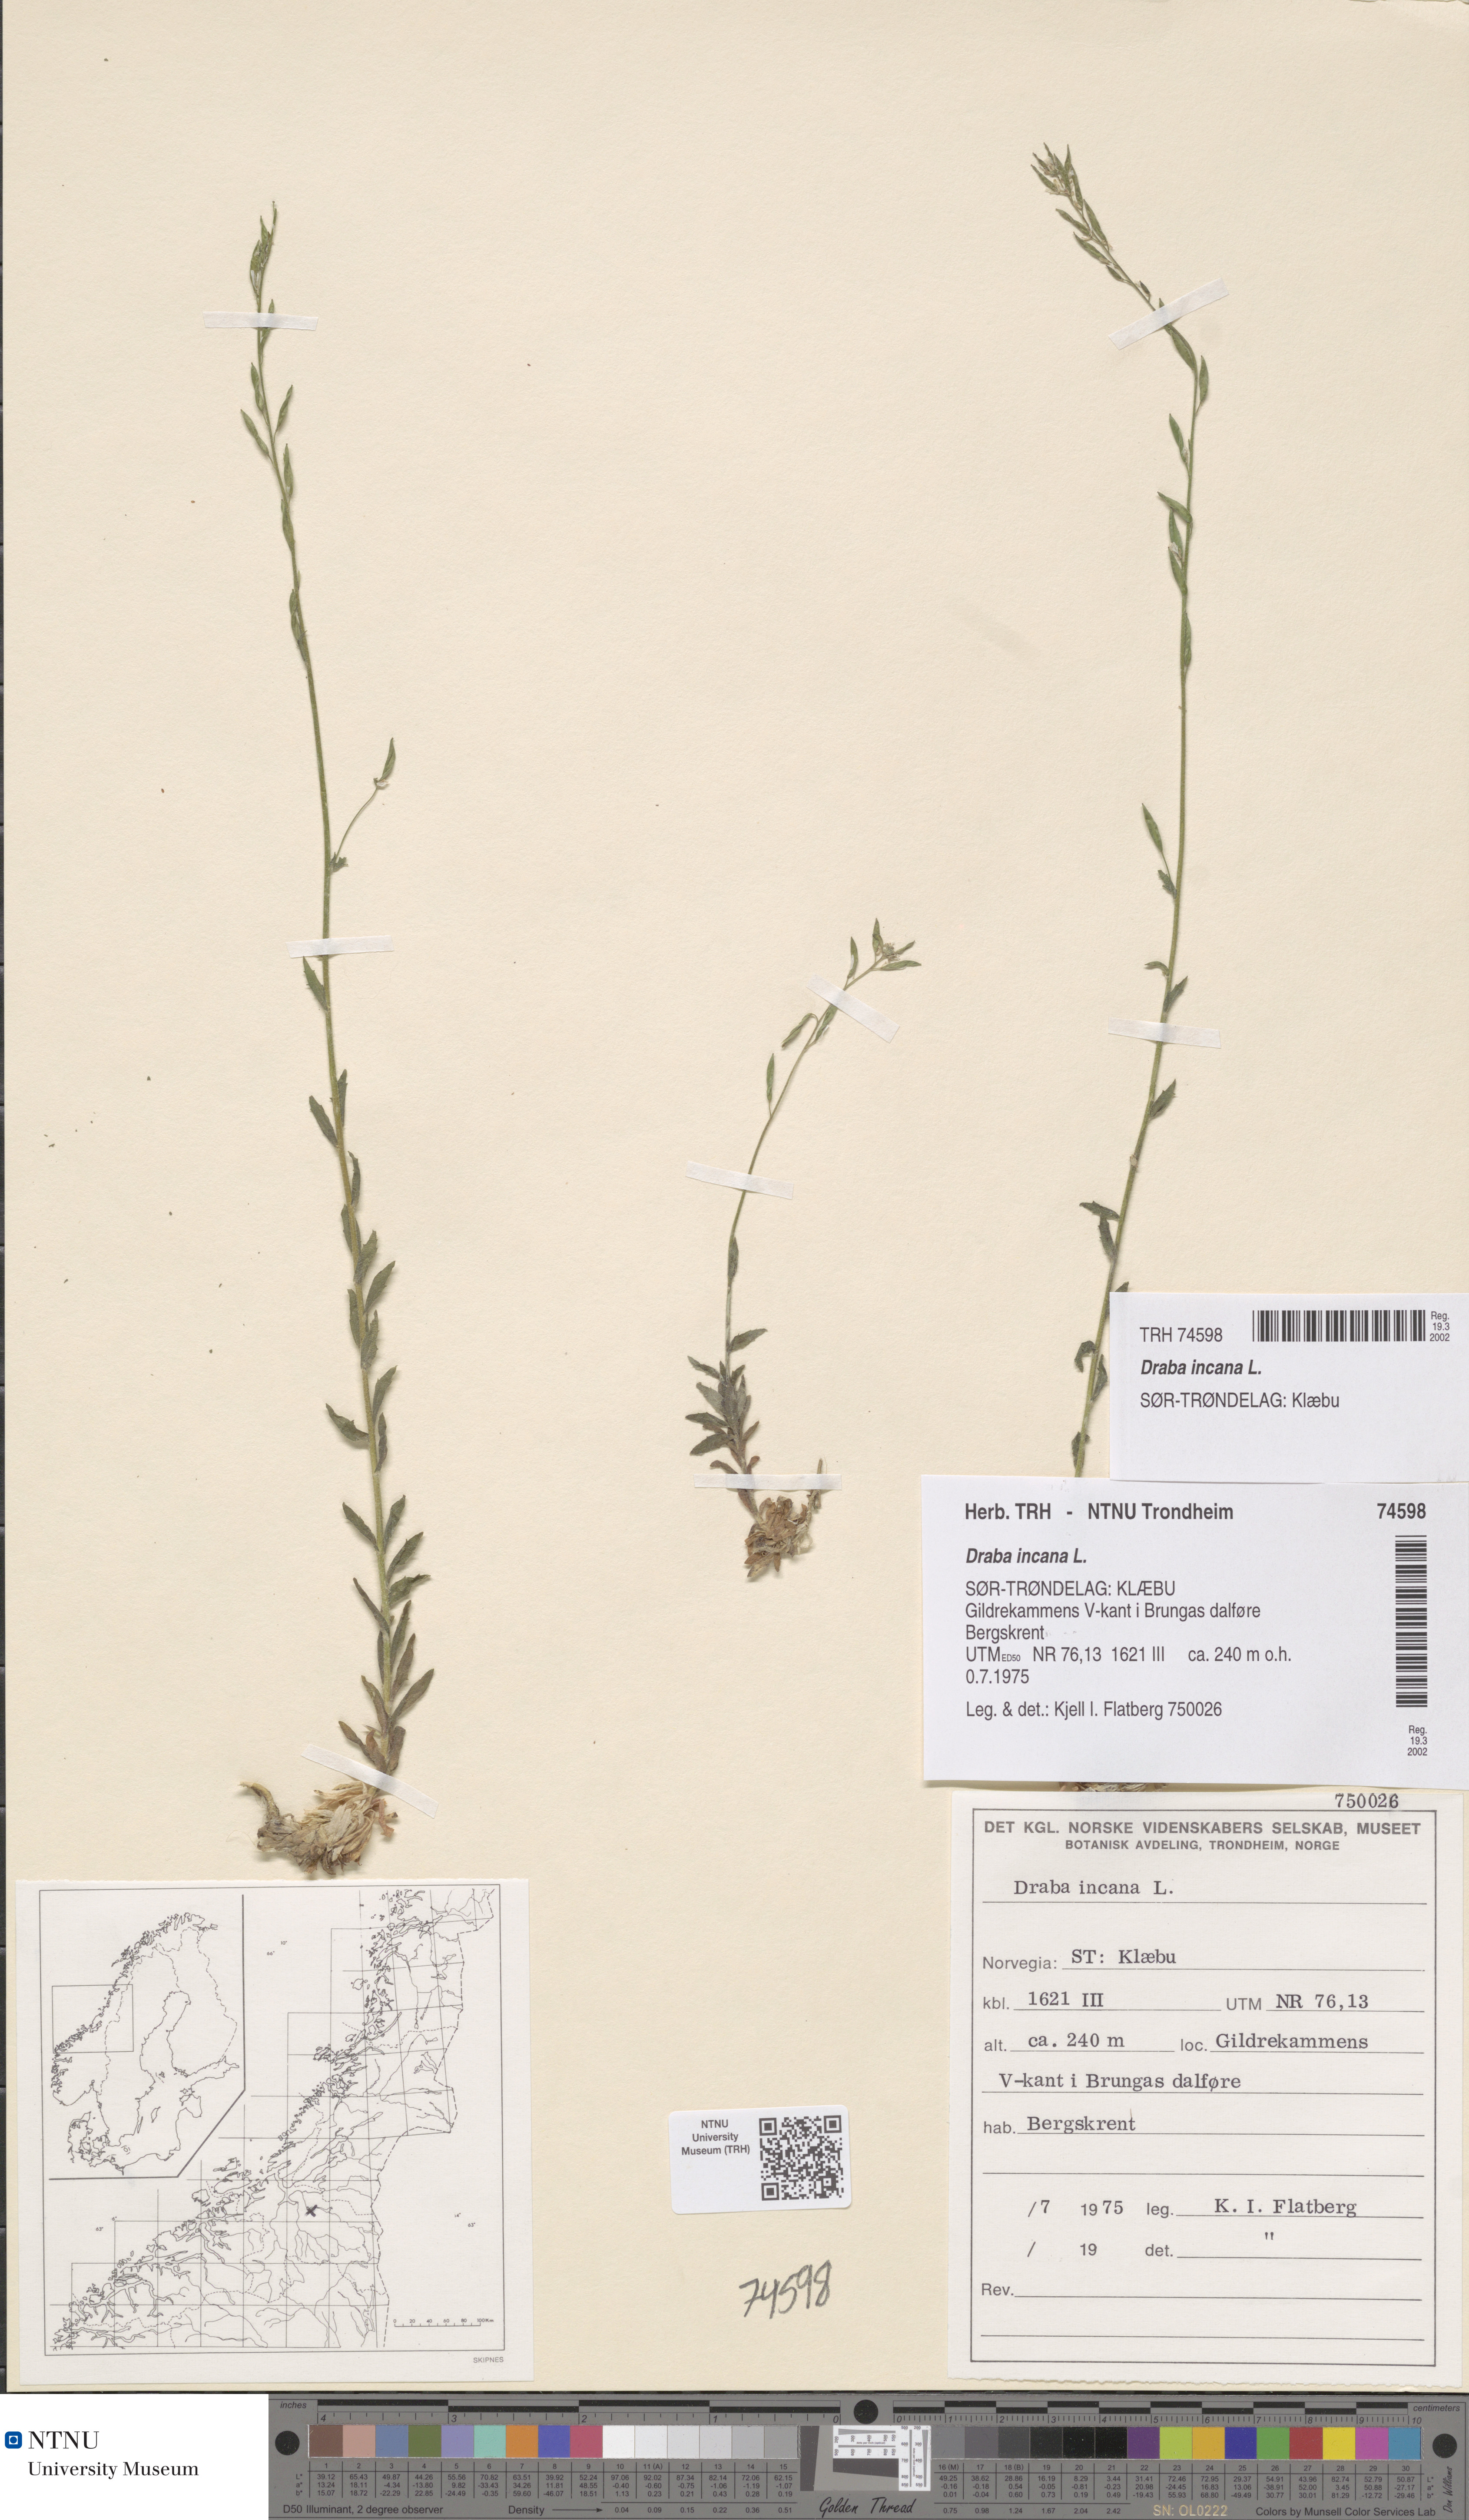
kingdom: Plantae
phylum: Tracheophyta
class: Magnoliopsida
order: Brassicales
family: Brassicaceae
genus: Draba
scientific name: Draba incana
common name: Hoary whitlow-grass
